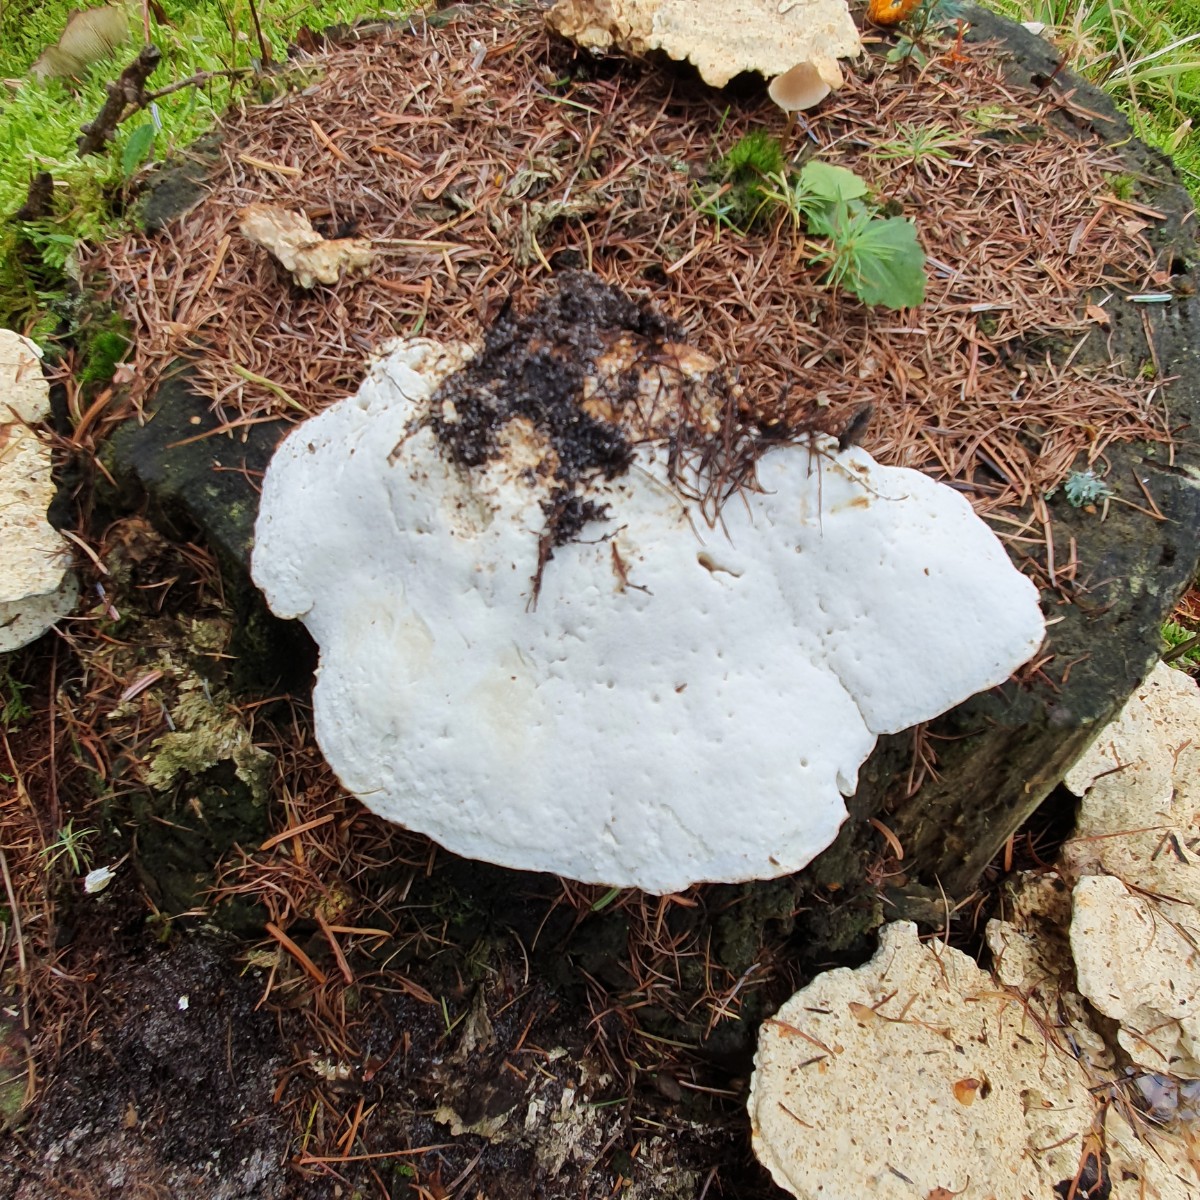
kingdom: Fungi
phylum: Basidiomycota
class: Agaricomycetes
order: Polyporales
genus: Calcipostia
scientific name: Calcipostia guttulata
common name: dråbe-kødporesvamp
